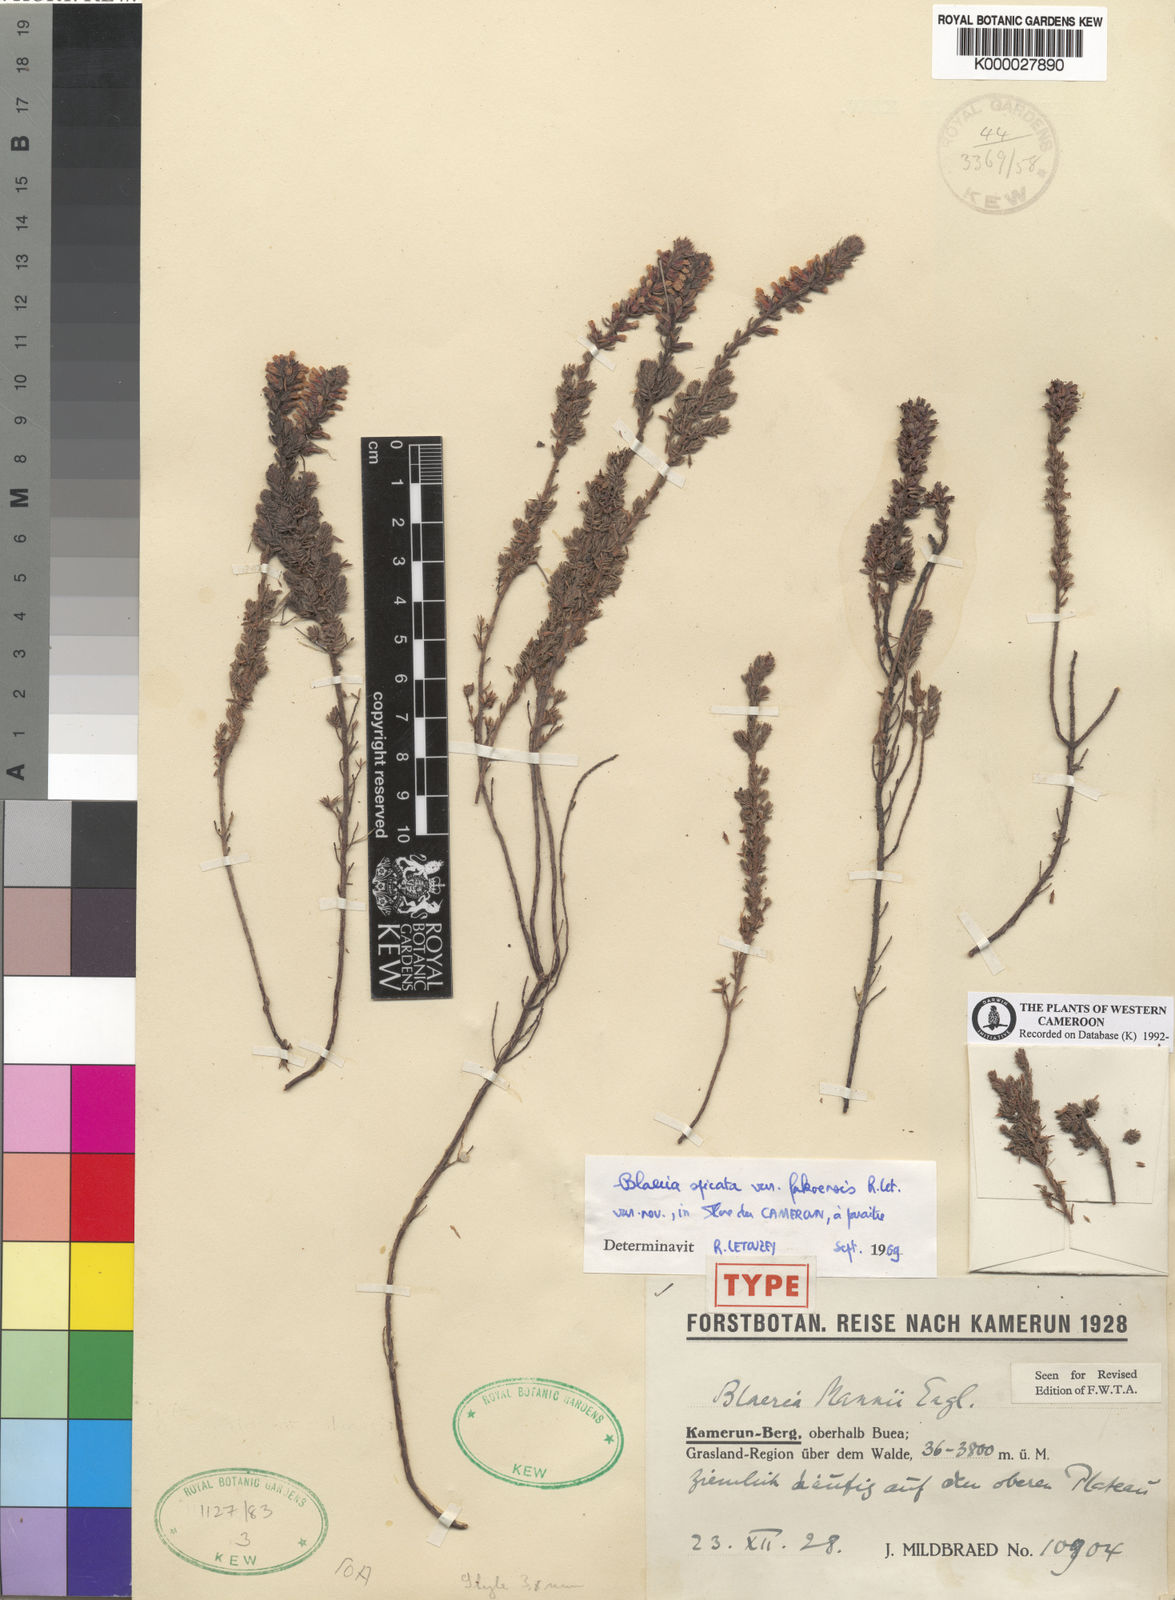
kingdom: Plantae
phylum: Tracheophyta
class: Magnoliopsida
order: Ericales
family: Ericaceae
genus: Erica
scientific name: Erica silvatica
